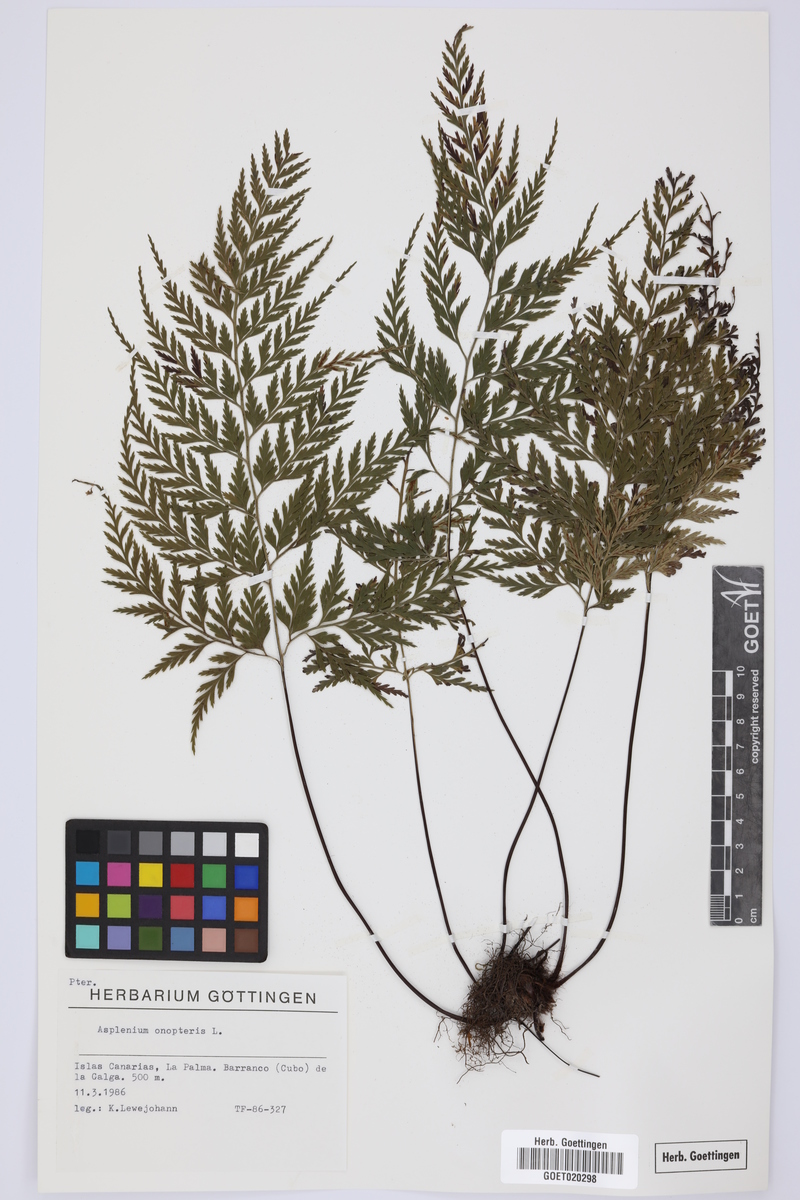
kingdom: Plantae
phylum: Tracheophyta
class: Polypodiopsida
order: Polypodiales
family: Aspleniaceae
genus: Asplenium
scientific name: Asplenium onopteris
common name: Irish spleenwort
